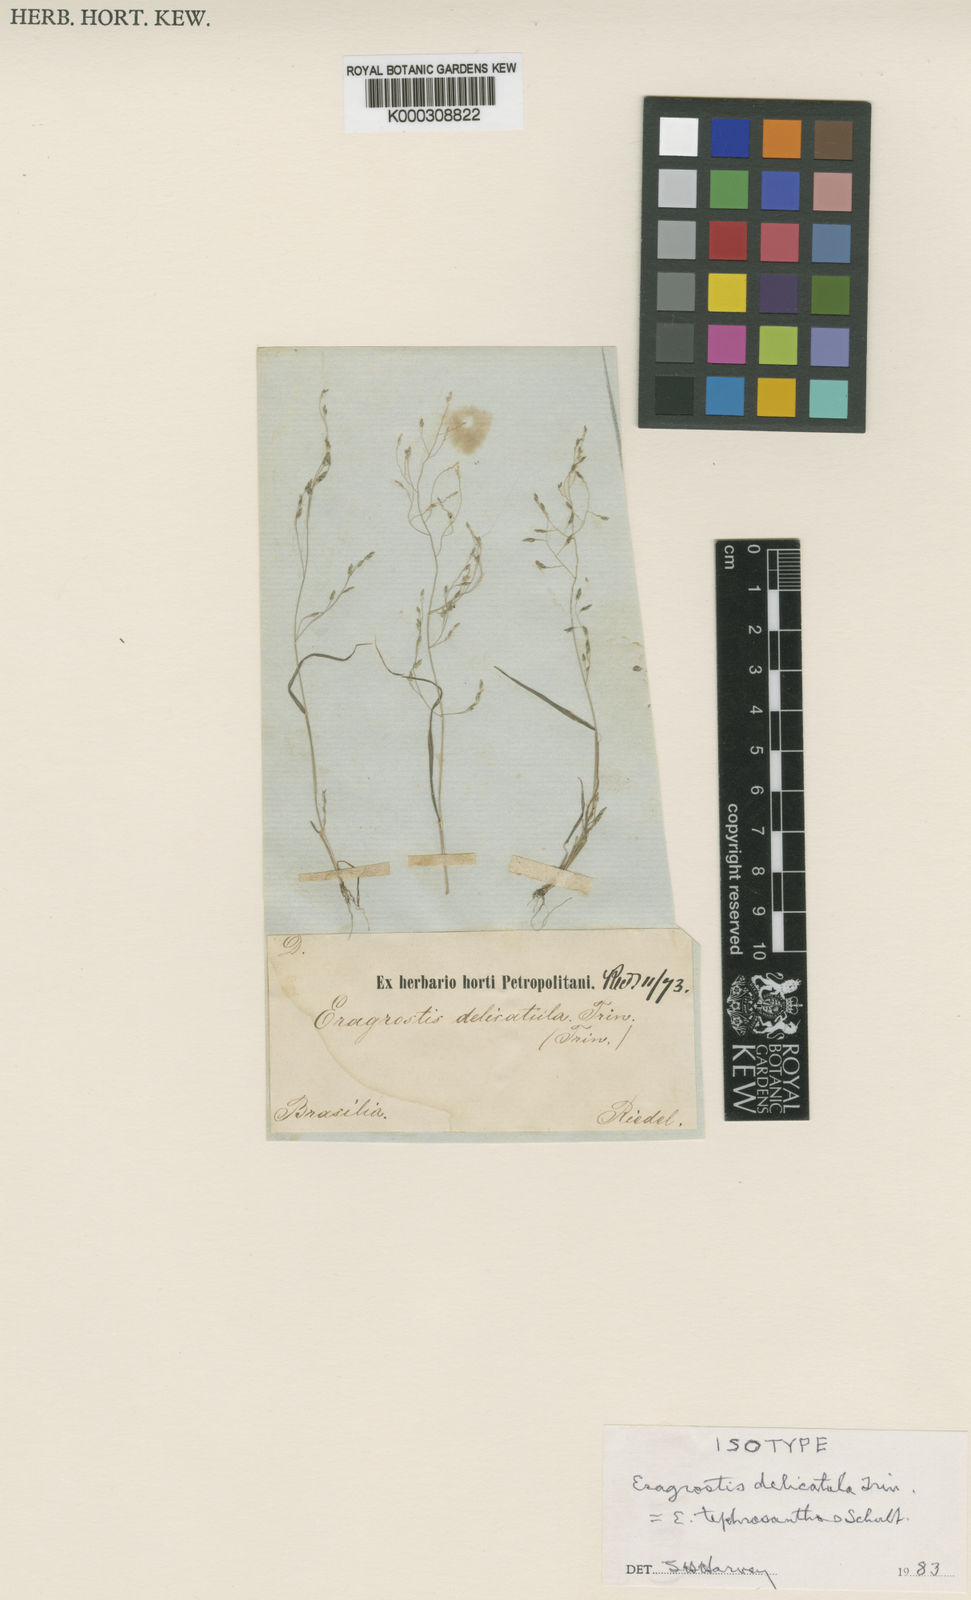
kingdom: Plantae
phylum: Tracheophyta
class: Liliopsida
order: Poales
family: Poaceae
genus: Eragrostis
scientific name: Eragrostis tephrosanthos
